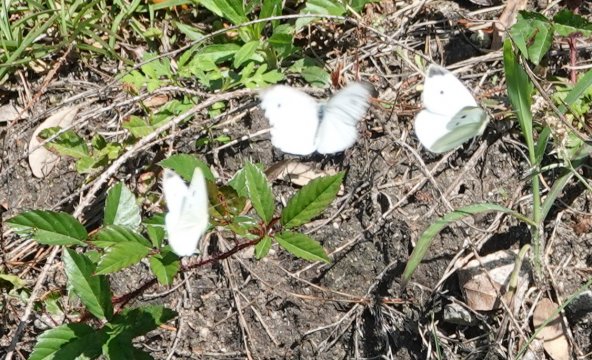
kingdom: Animalia
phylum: Arthropoda
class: Insecta
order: Lepidoptera
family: Pieridae
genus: Pieris
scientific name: Pieris rapae
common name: Cabbage White
